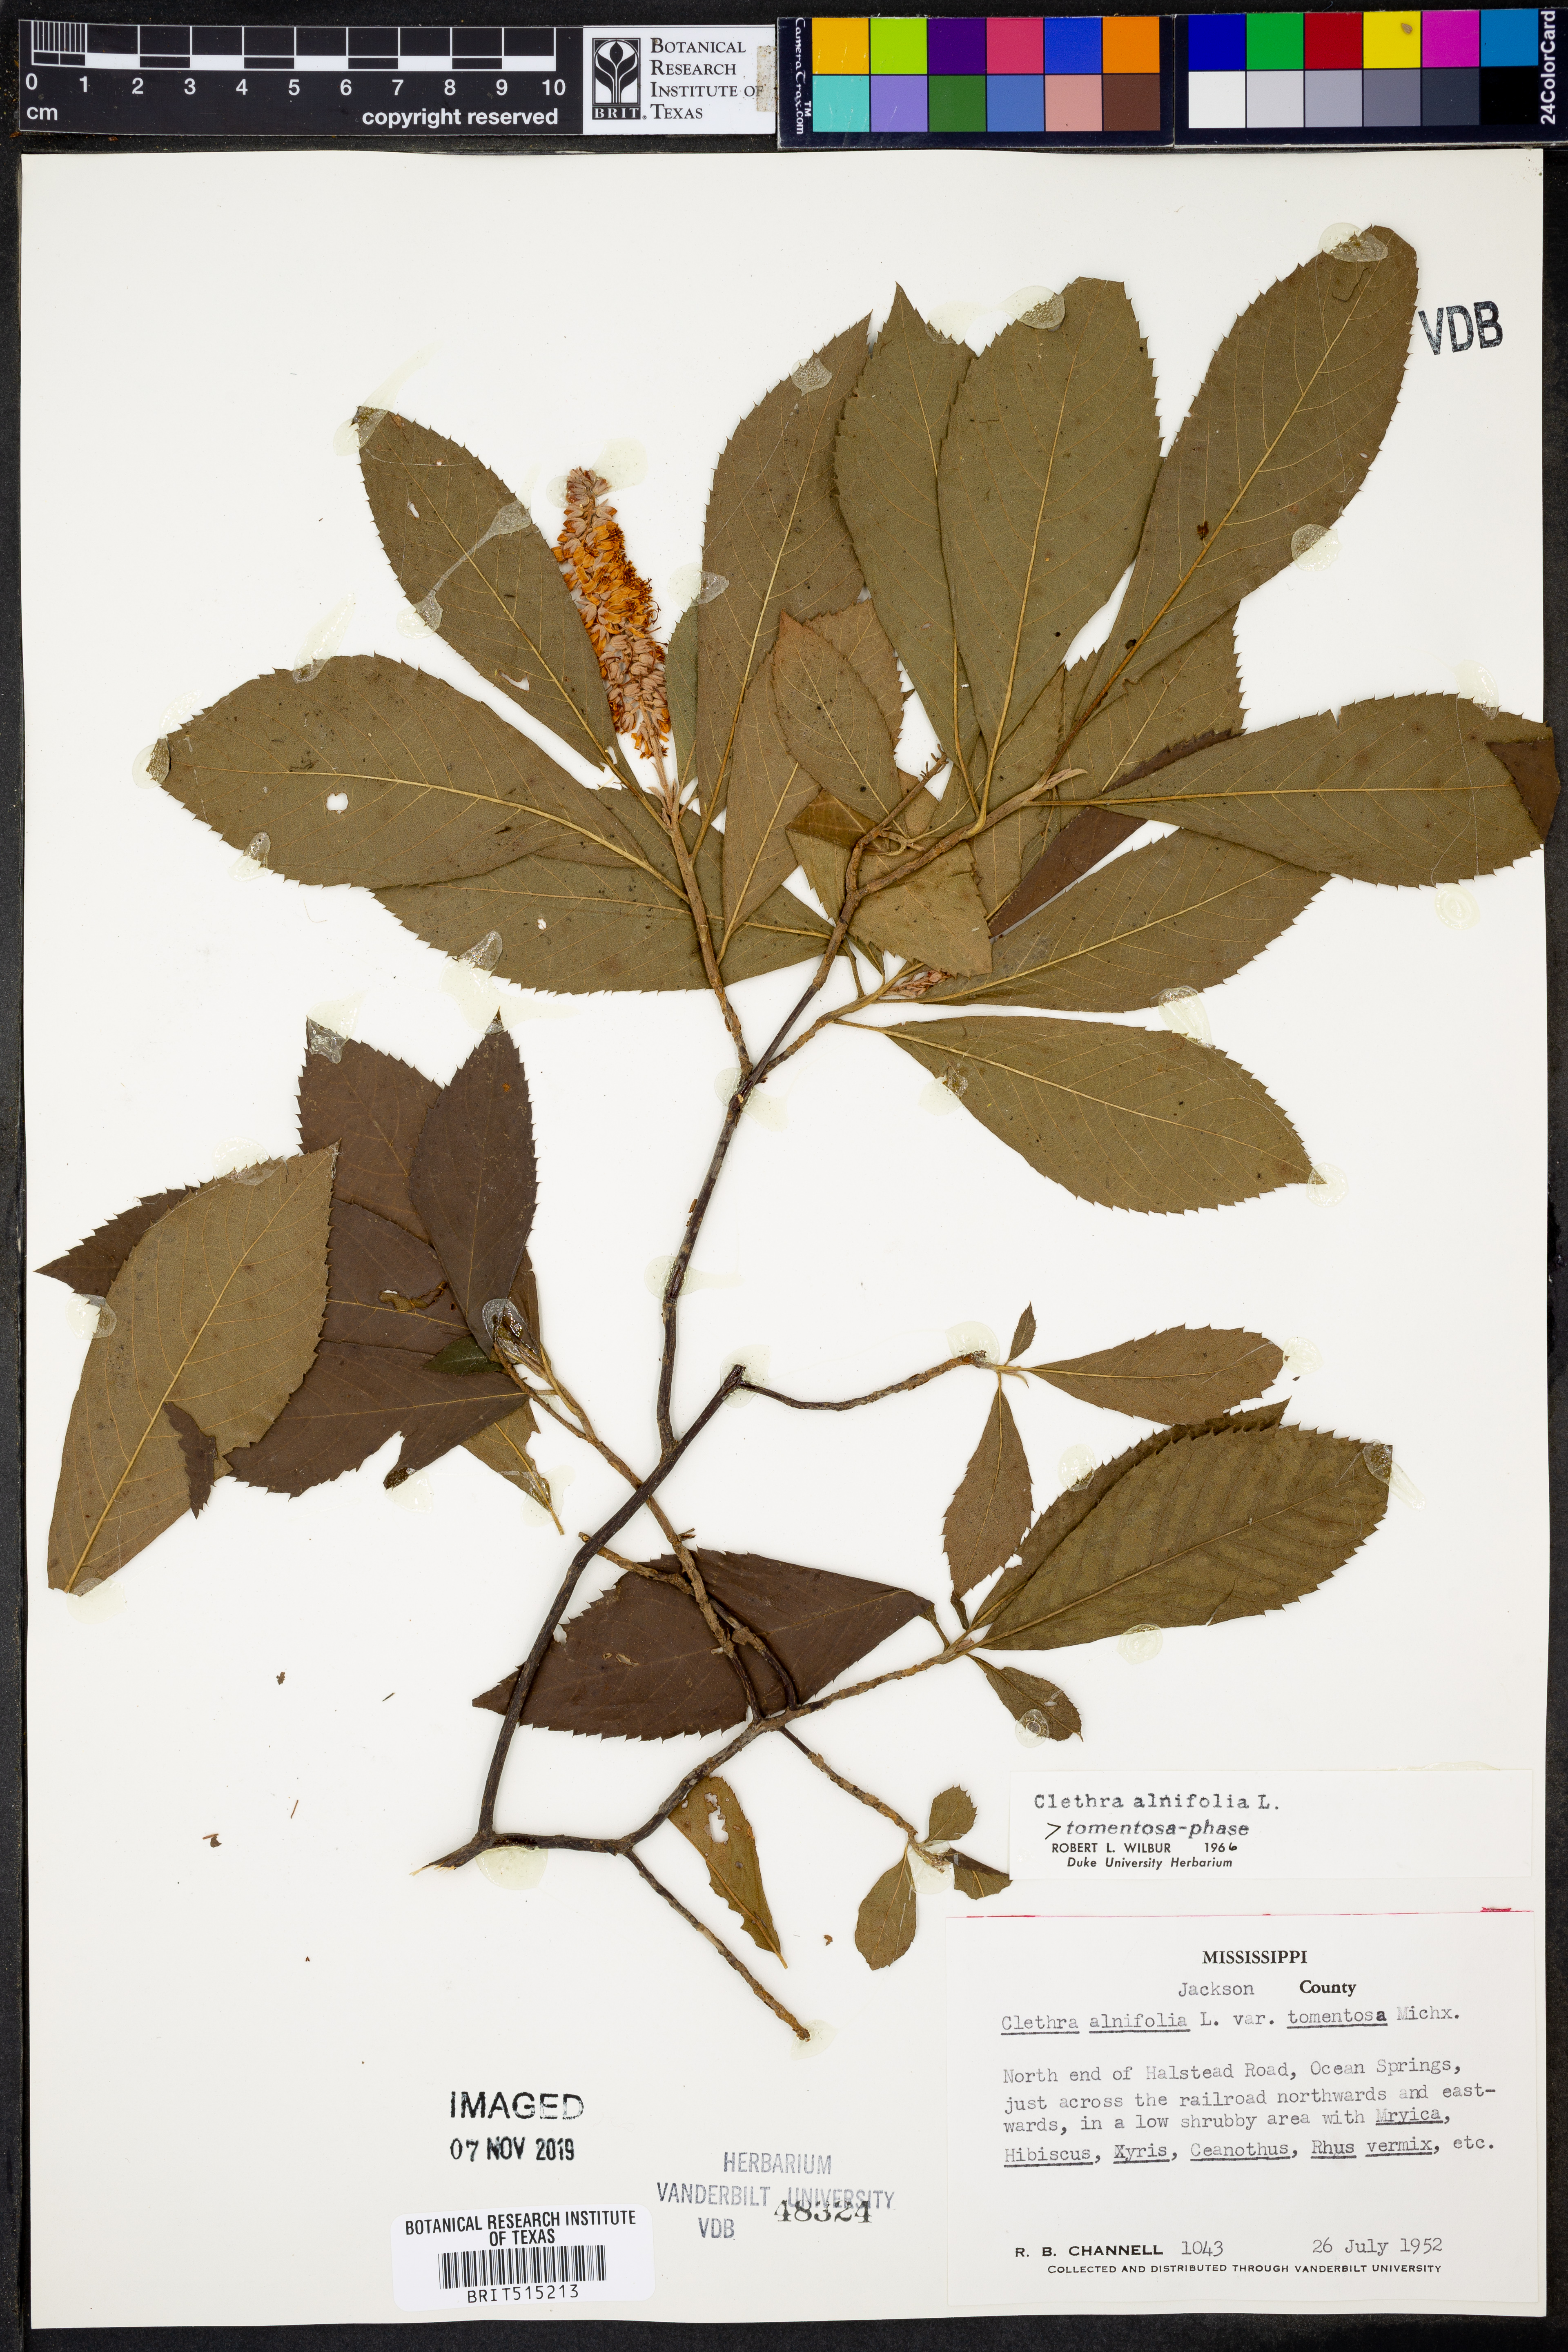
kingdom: Plantae
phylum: Tracheophyta
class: Magnoliopsida
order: Ericales
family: Clethraceae
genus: Clethra
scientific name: Clethra tomentosa
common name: Downy sweet pepperbush
